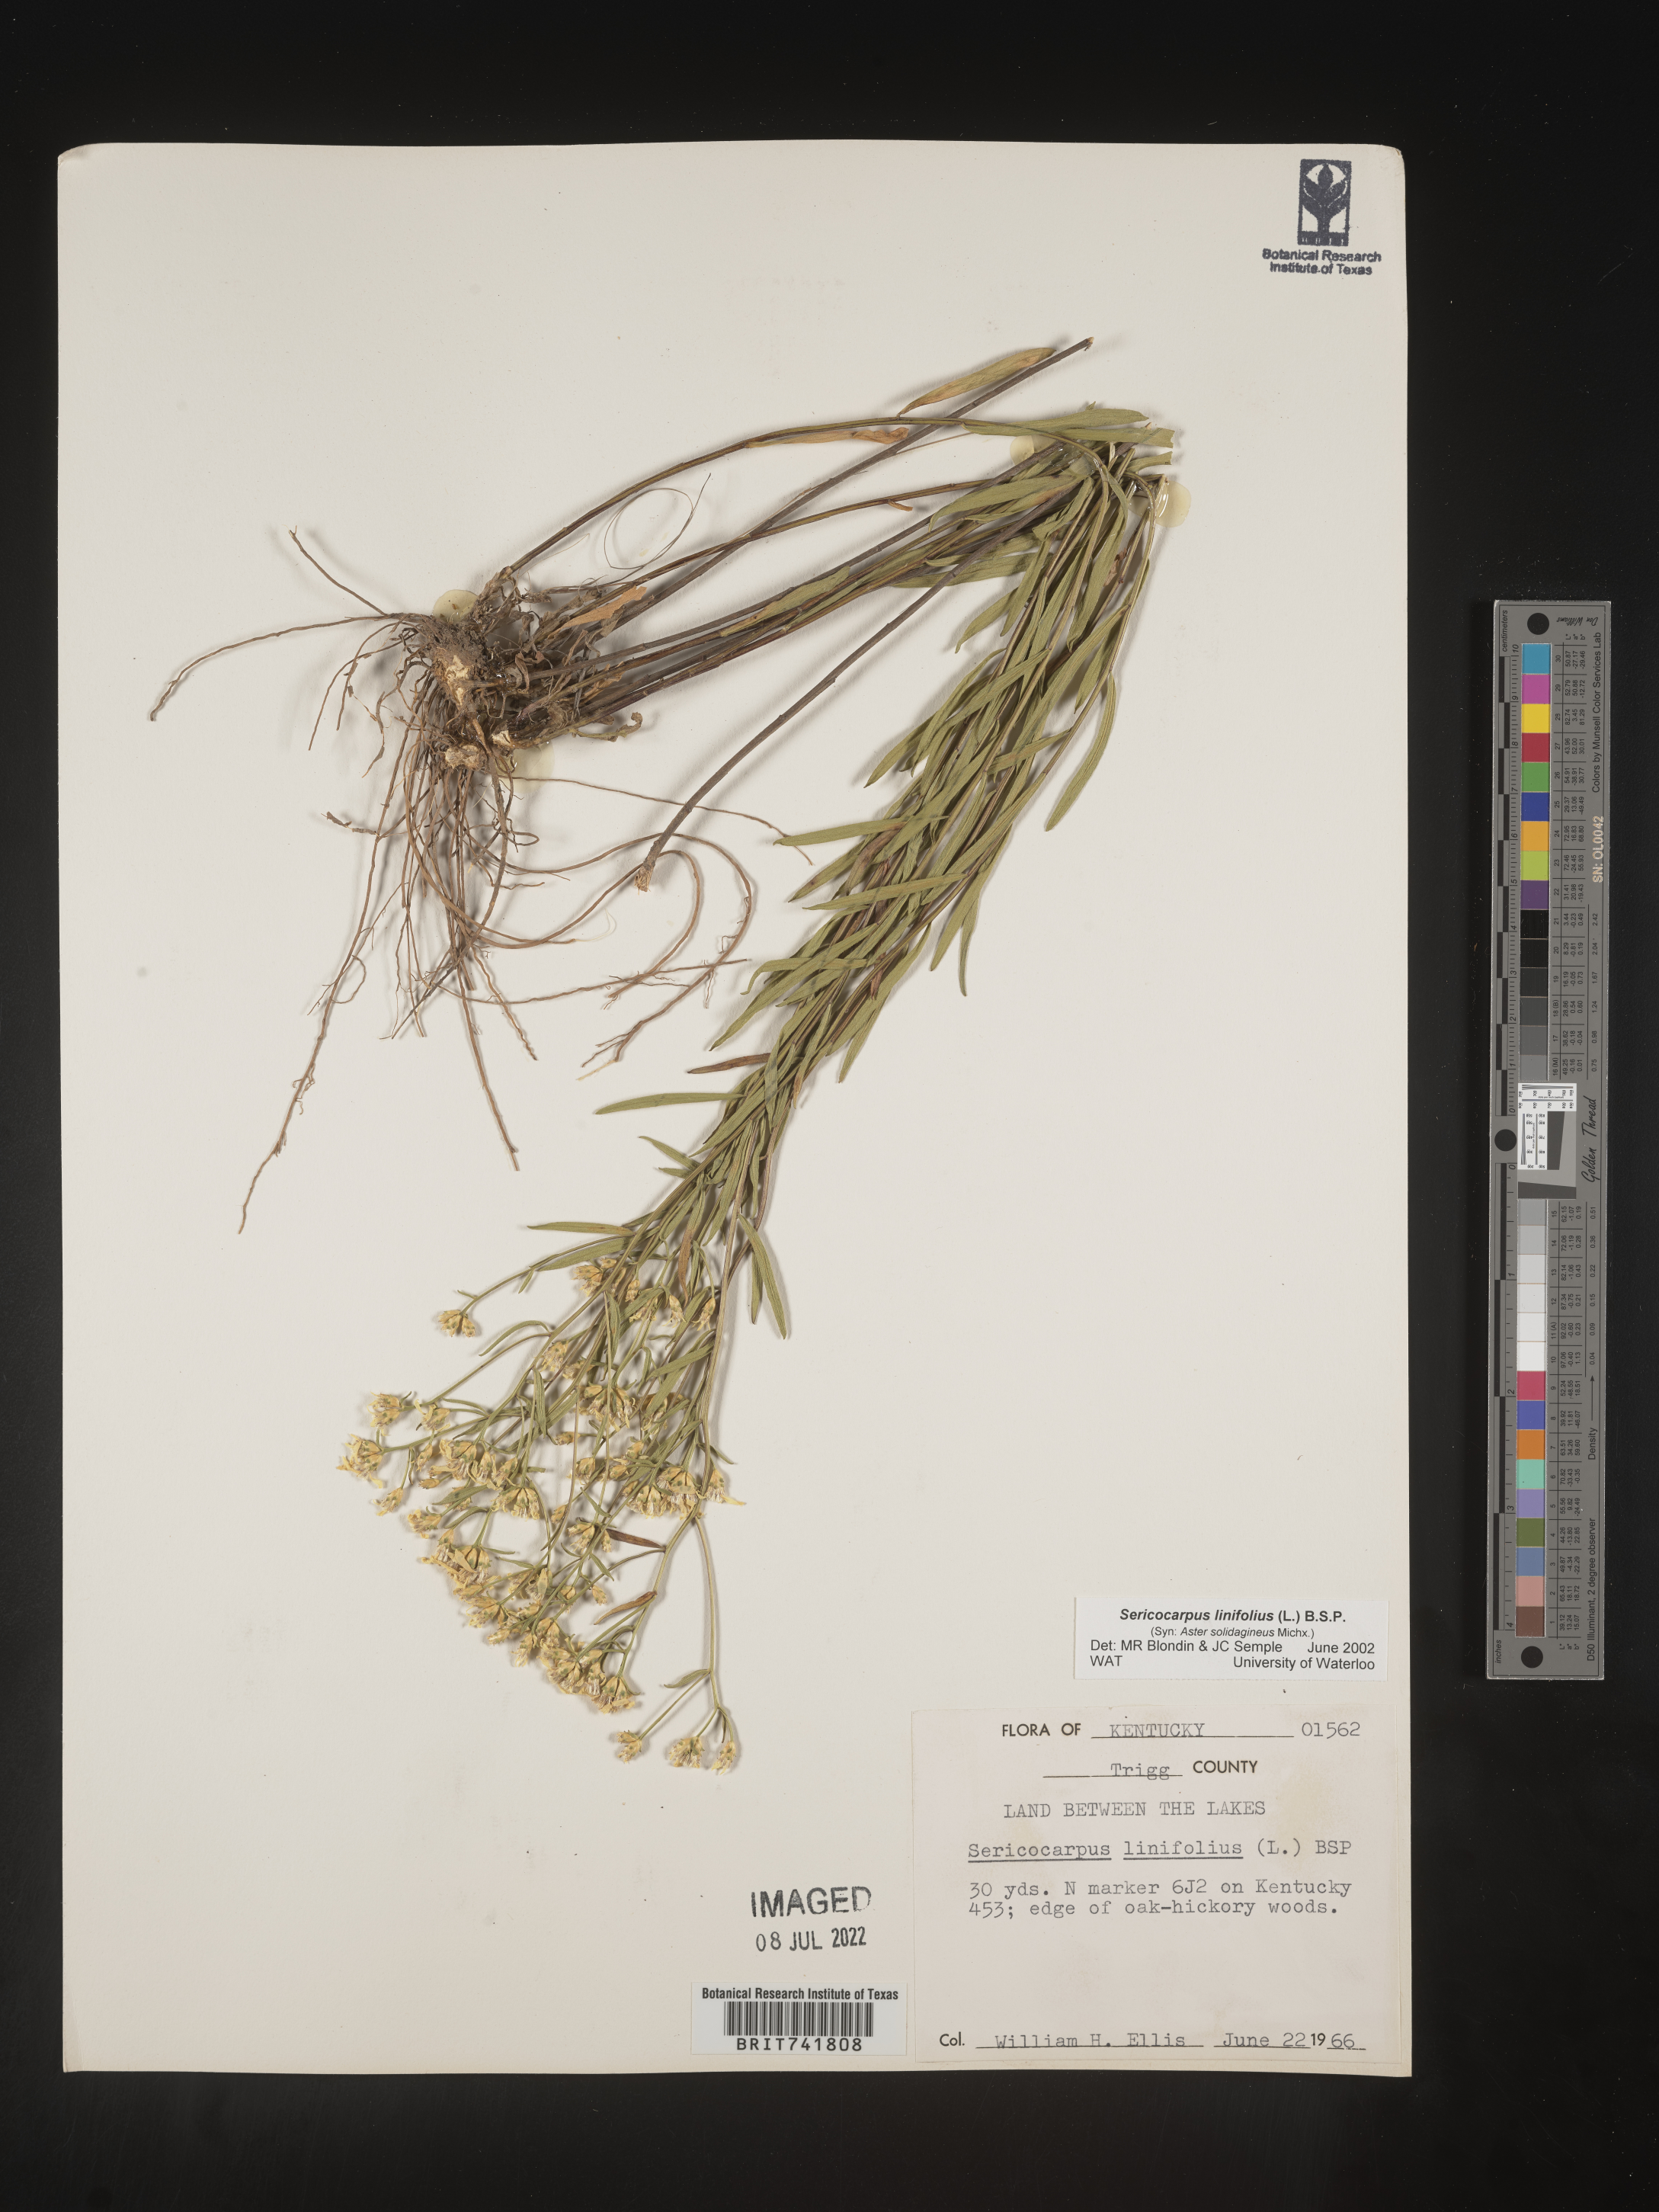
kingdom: Plantae
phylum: Tracheophyta
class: Magnoliopsida
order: Asterales
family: Asteraceae
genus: Sericocarpus
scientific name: Sericocarpus linifolius
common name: Narrow-leaf aster
